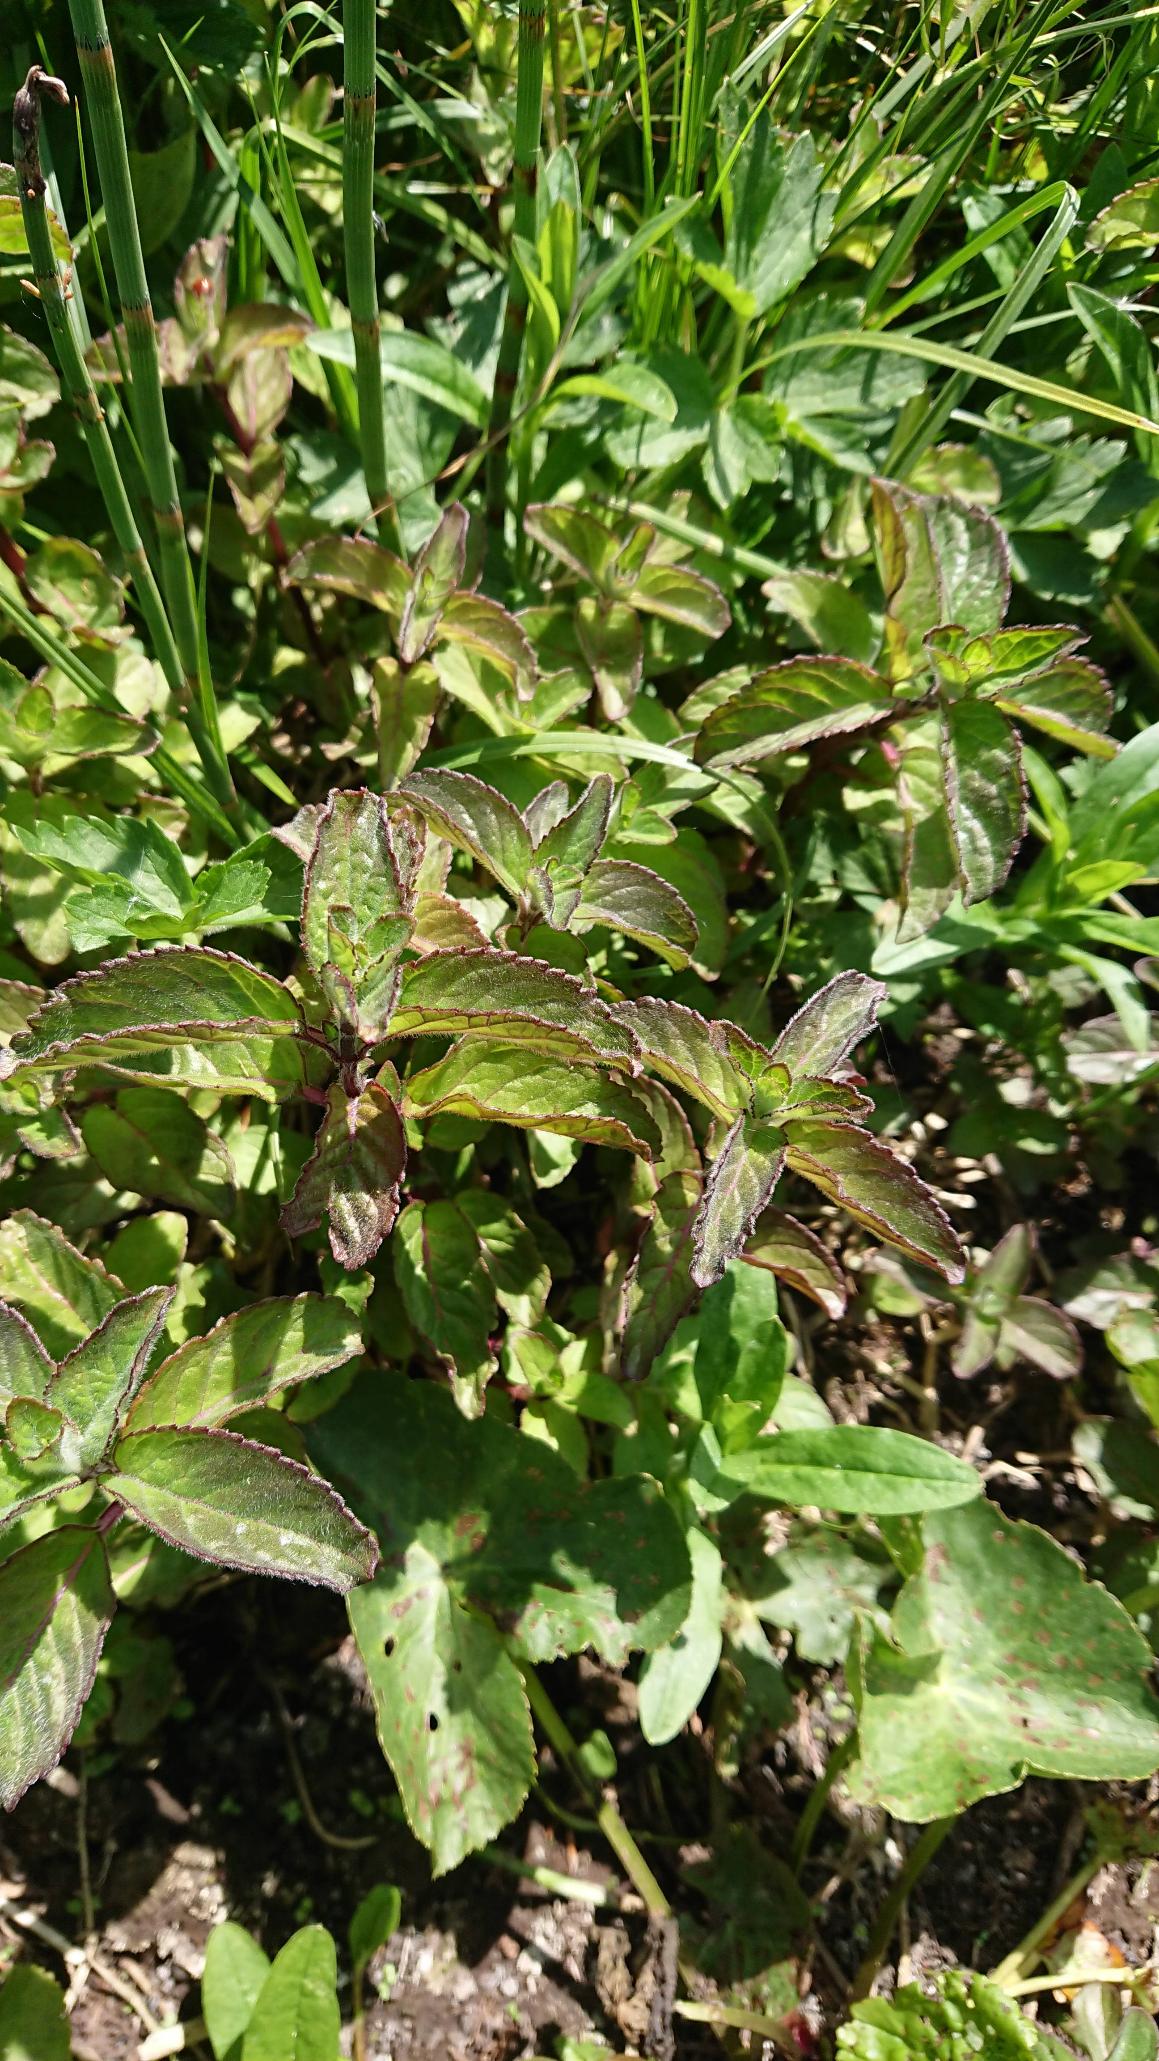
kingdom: Plantae
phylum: Tracheophyta
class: Magnoliopsida
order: Lamiales
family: Lamiaceae
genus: Mentha
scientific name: Mentha aquatica
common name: Vand-mynte
